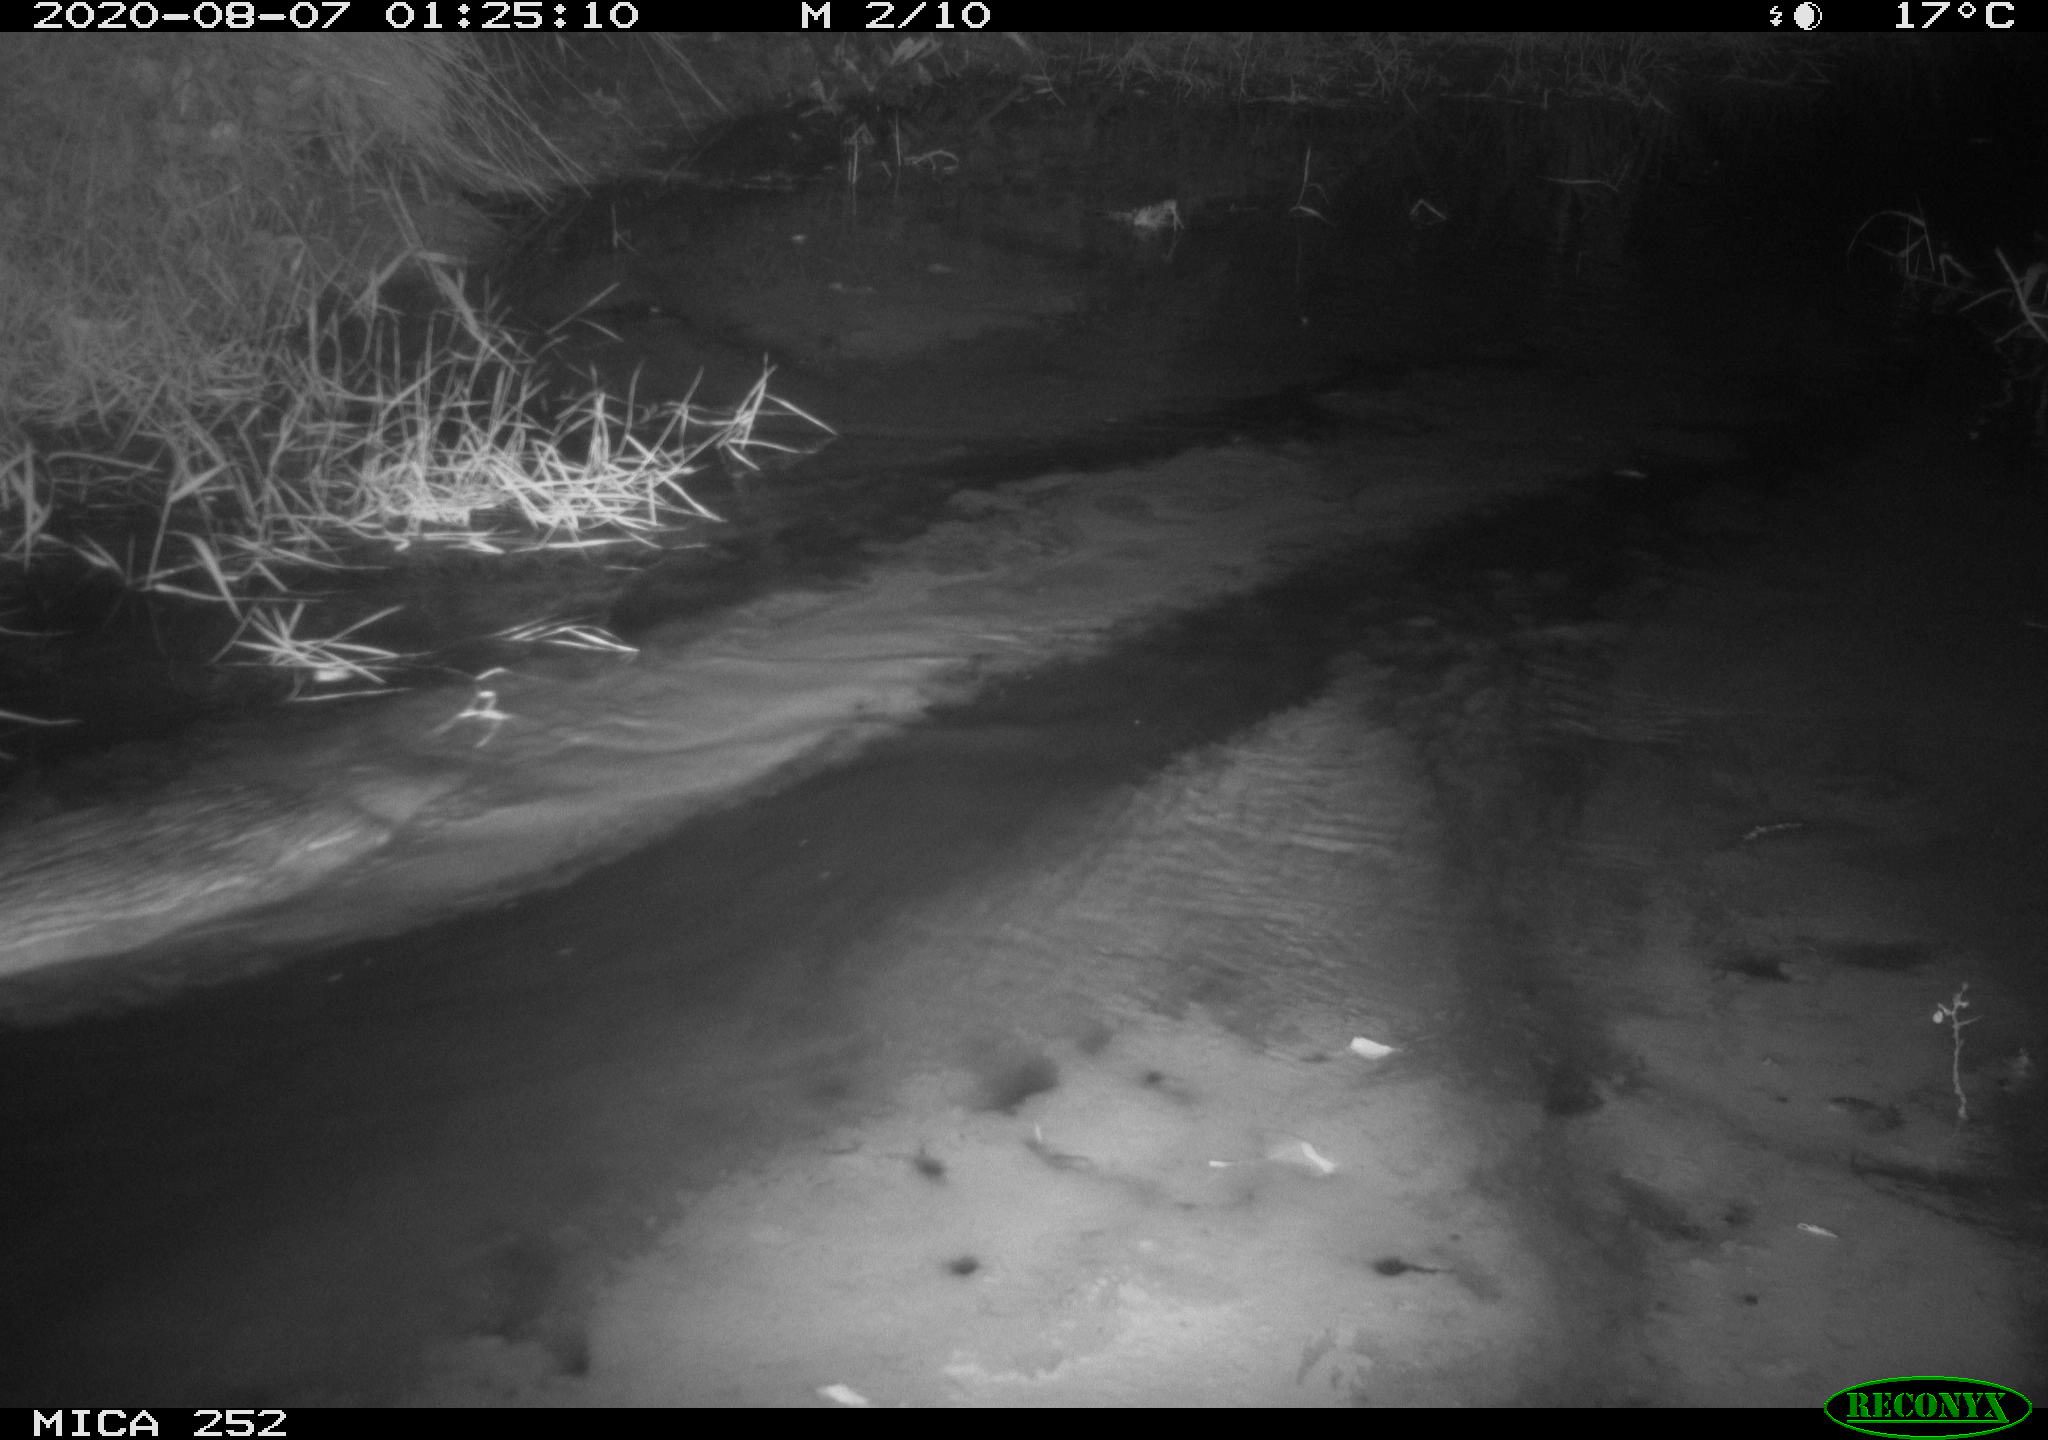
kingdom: Animalia
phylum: Chordata
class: Mammalia
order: Rodentia
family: Castoridae
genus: Castor
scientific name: Castor fiber
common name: Eurasian beaver
